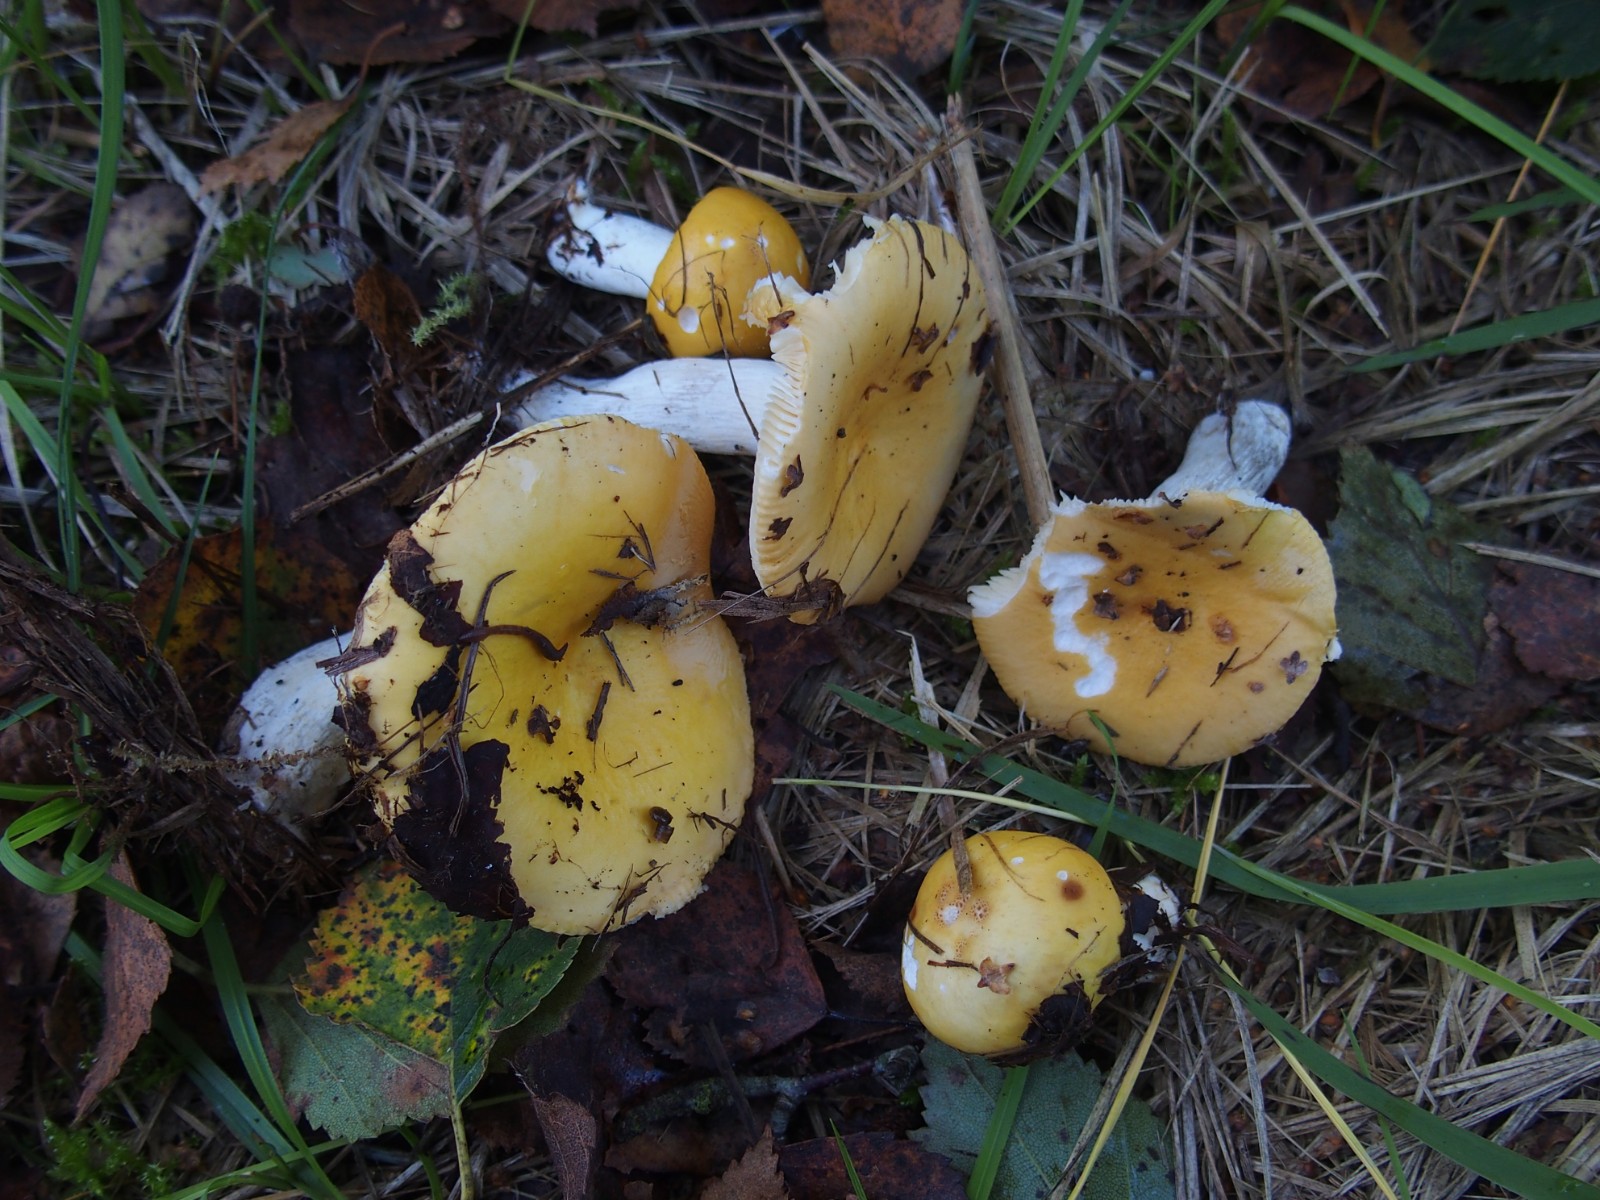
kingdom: Fungi
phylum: Basidiomycota
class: Agaricomycetes
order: Russulales
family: Russulaceae
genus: Russula
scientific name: Russula claroflava
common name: birke-skørhat
